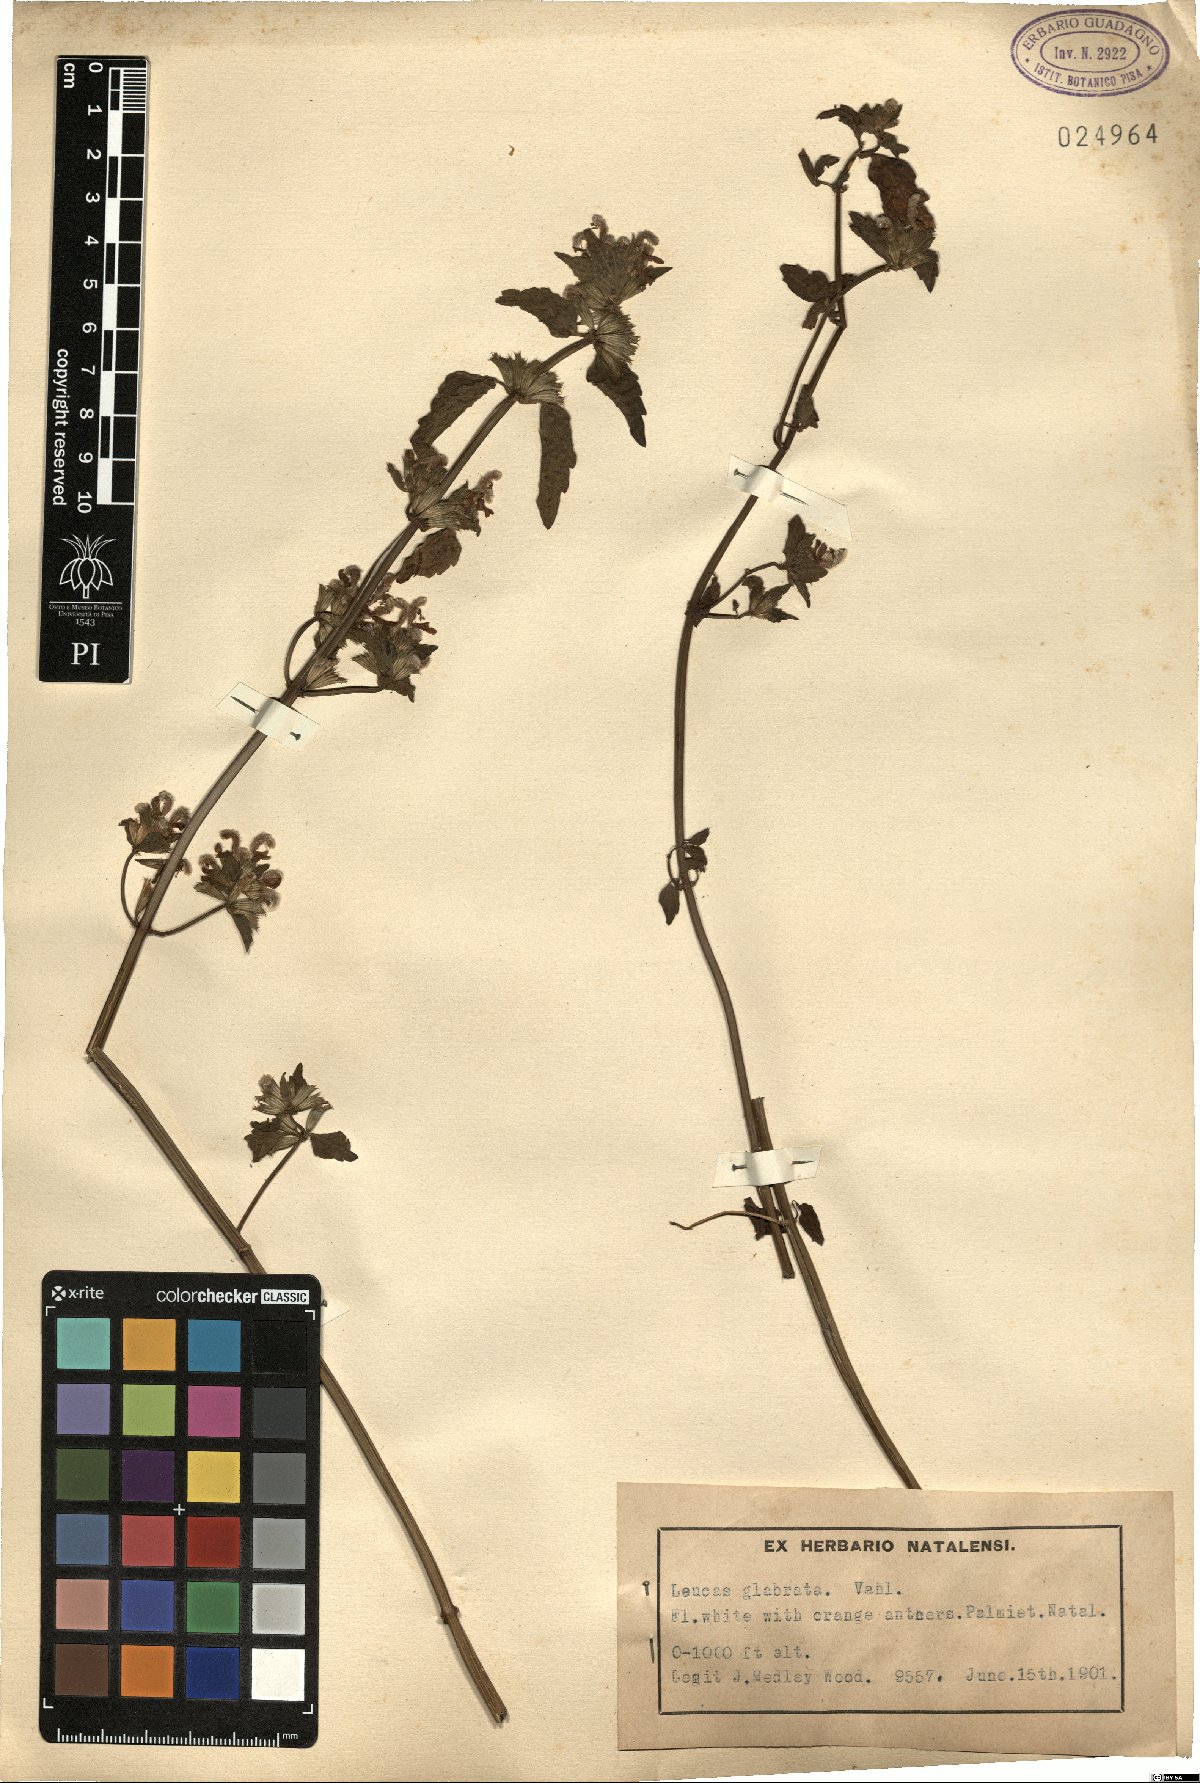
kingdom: Plantae
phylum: Tracheophyta
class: Magnoliopsida
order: Lamiales
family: Lamiaceae
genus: Leucas
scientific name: Leucas glabrata
